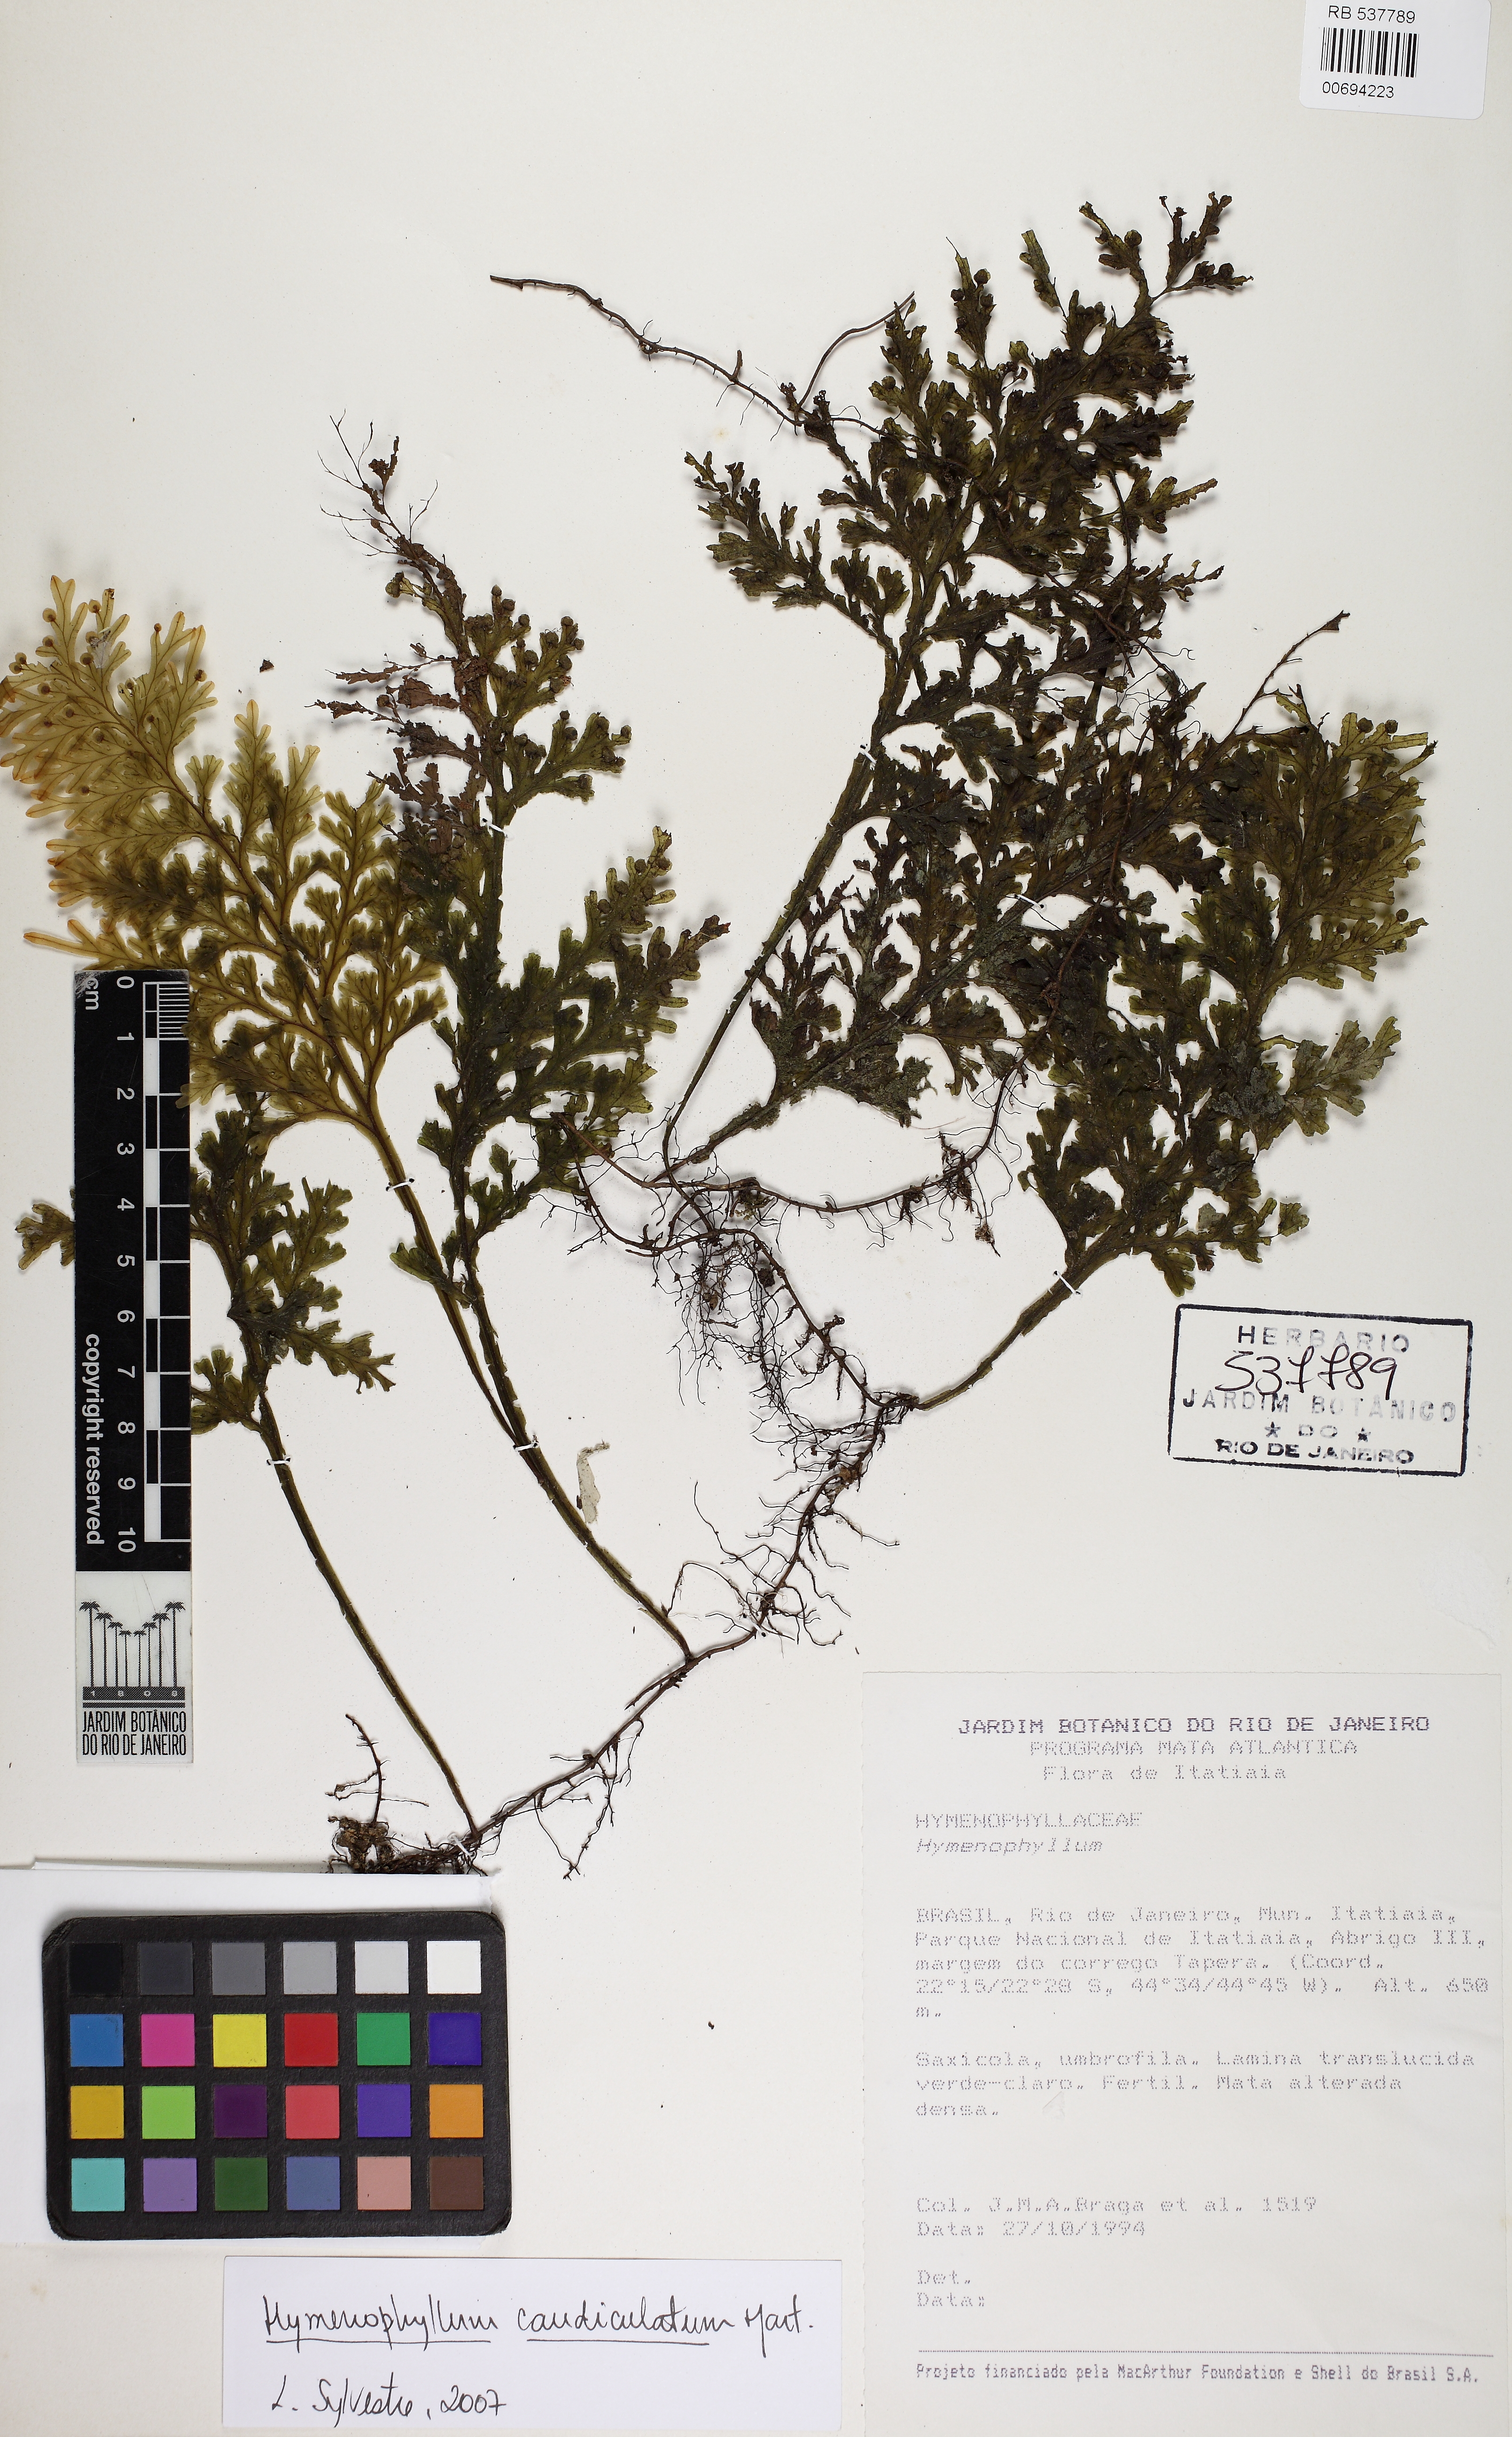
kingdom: Plantae
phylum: Tracheophyta
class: Polypodiopsida
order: Hymenophyllales
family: Hymenophyllaceae
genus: Hymenophyllum
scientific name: Hymenophyllum caudiculatum
